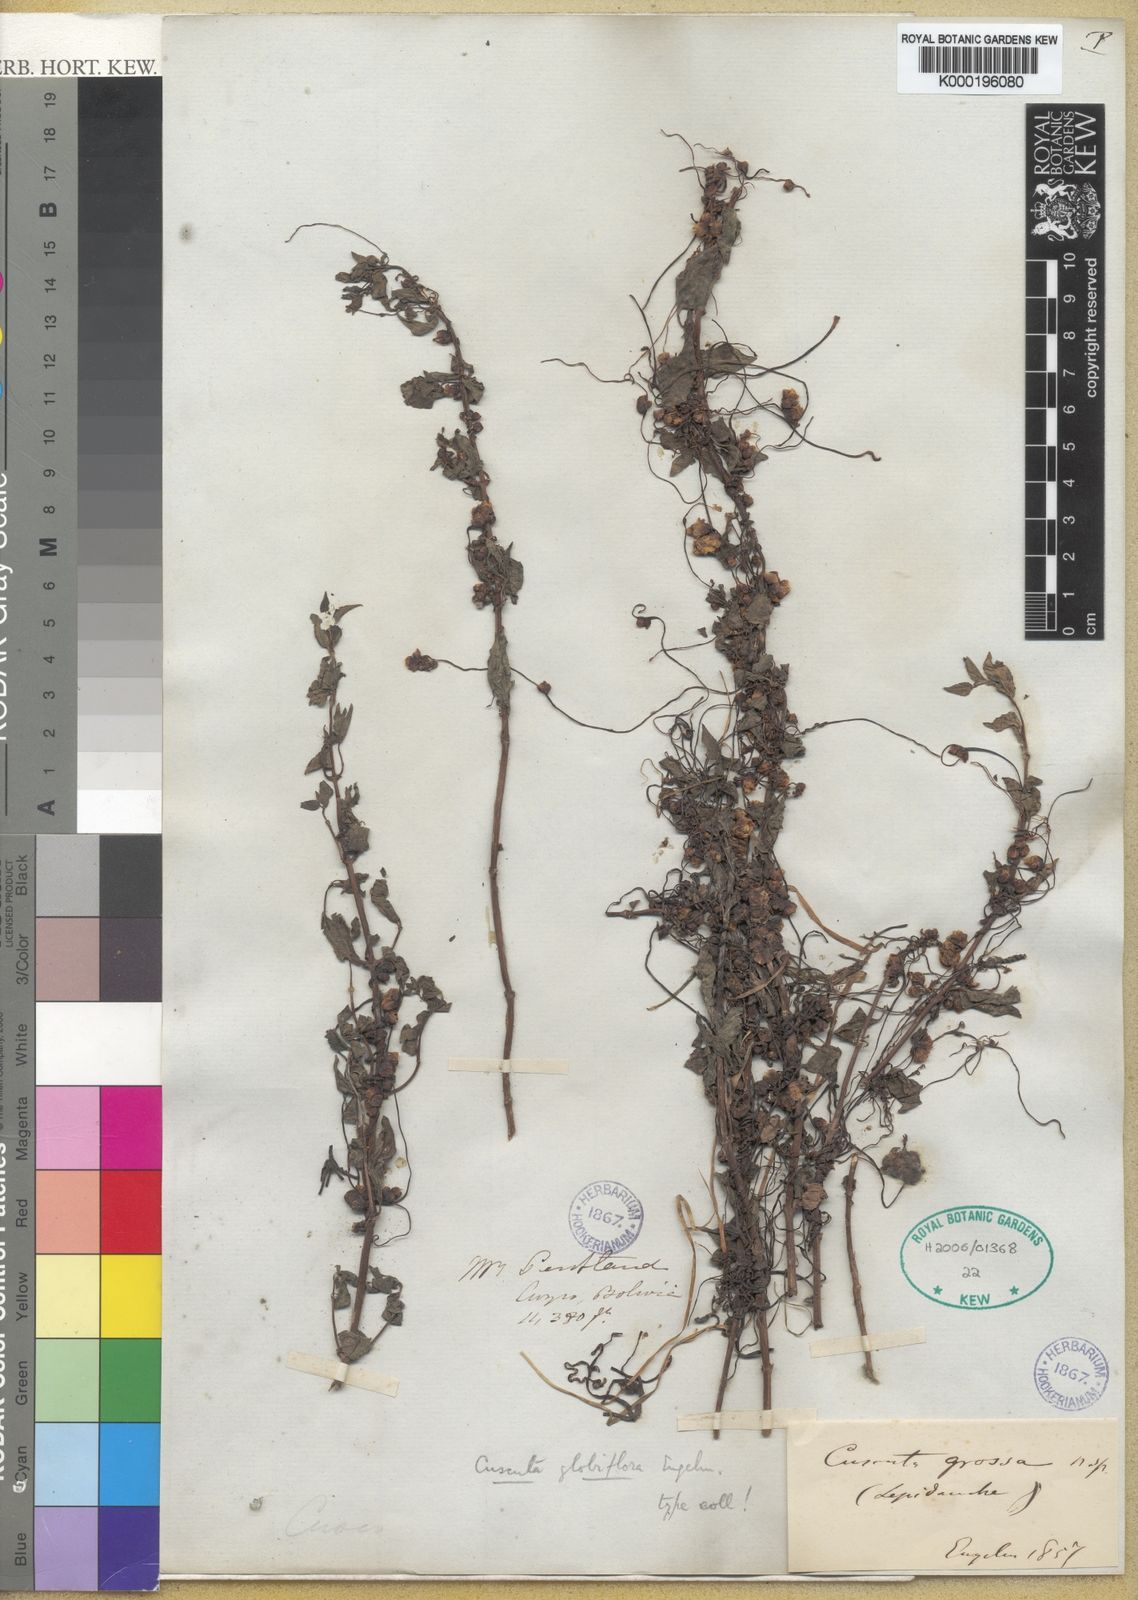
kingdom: Plantae
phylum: Tracheophyta
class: Magnoliopsida
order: Solanales
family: Convolvulaceae
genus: Cuscuta
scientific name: Cuscuta globiflora
